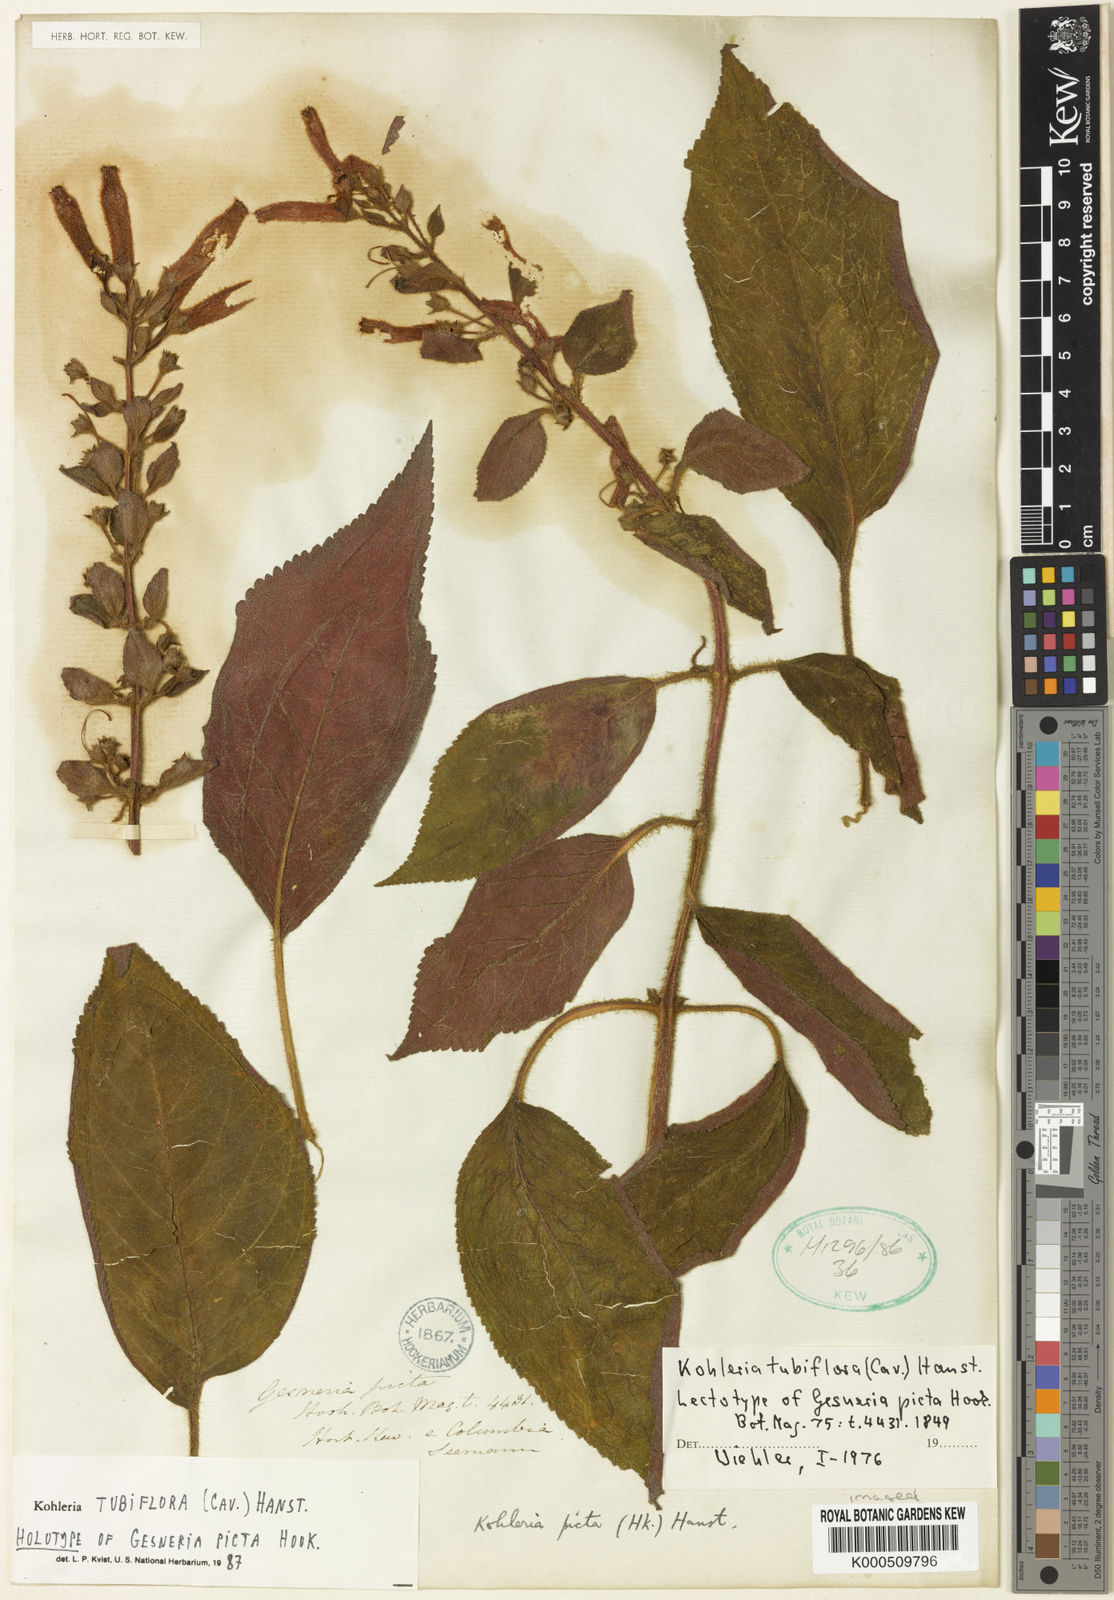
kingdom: Plantae
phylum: Tracheophyta
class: Magnoliopsida
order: Lamiales
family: Gesneriaceae
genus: Kohleria
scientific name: Kohleria tubiflora
